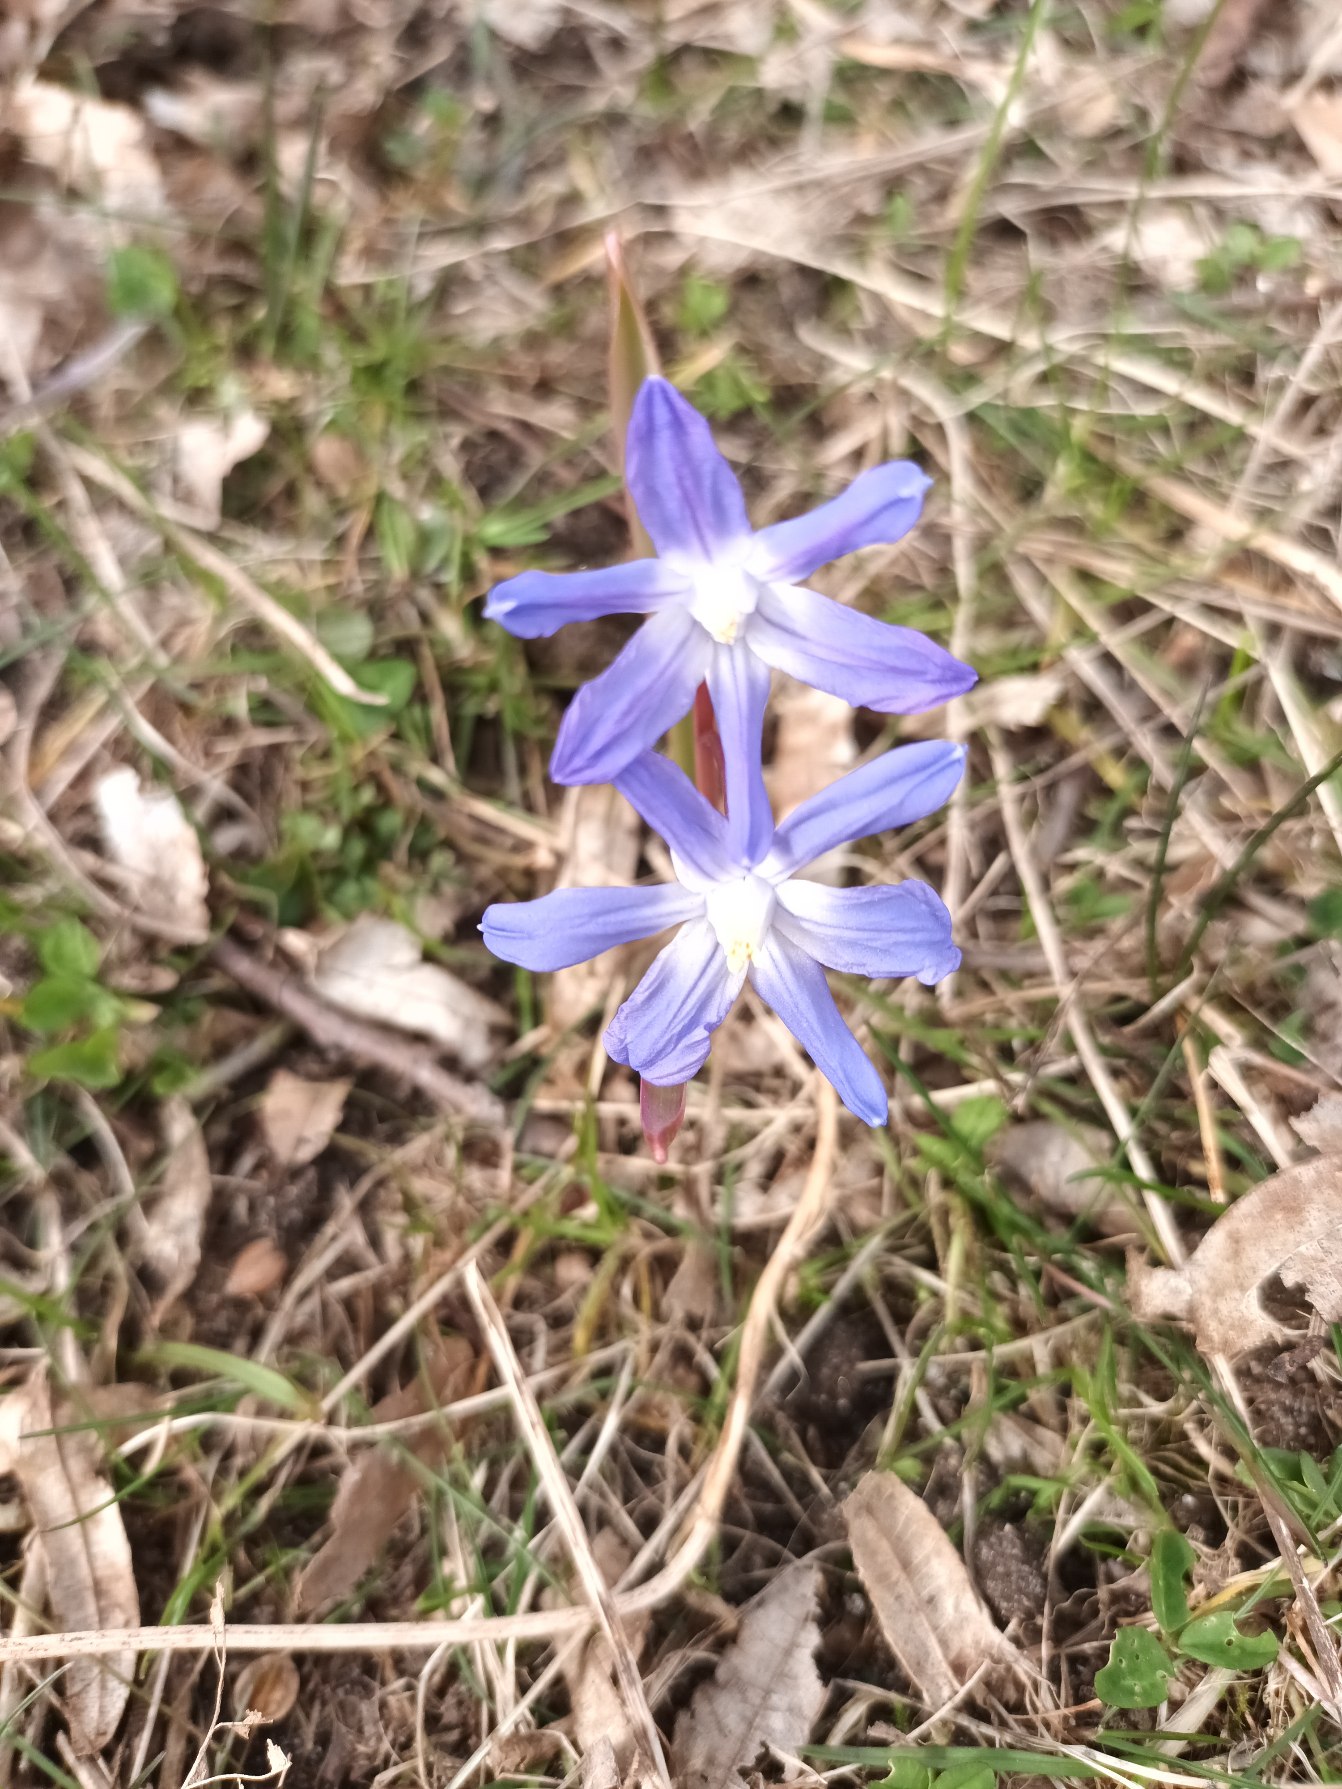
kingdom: Plantae
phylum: Tracheophyta
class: Liliopsida
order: Asparagales
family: Asparagaceae
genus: Scilla
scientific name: Scilla forbesii
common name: Almindelig snepryd
